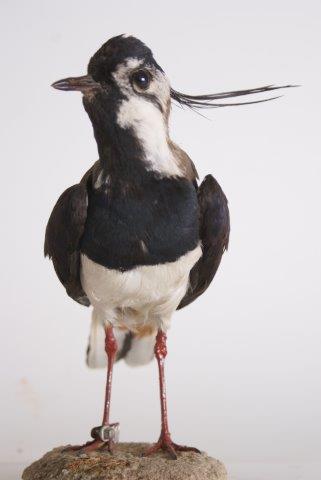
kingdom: Animalia
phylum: Chordata
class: Aves
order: Charadriiformes
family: Charadriidae
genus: Vanellus
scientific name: Vanellus vanellus
